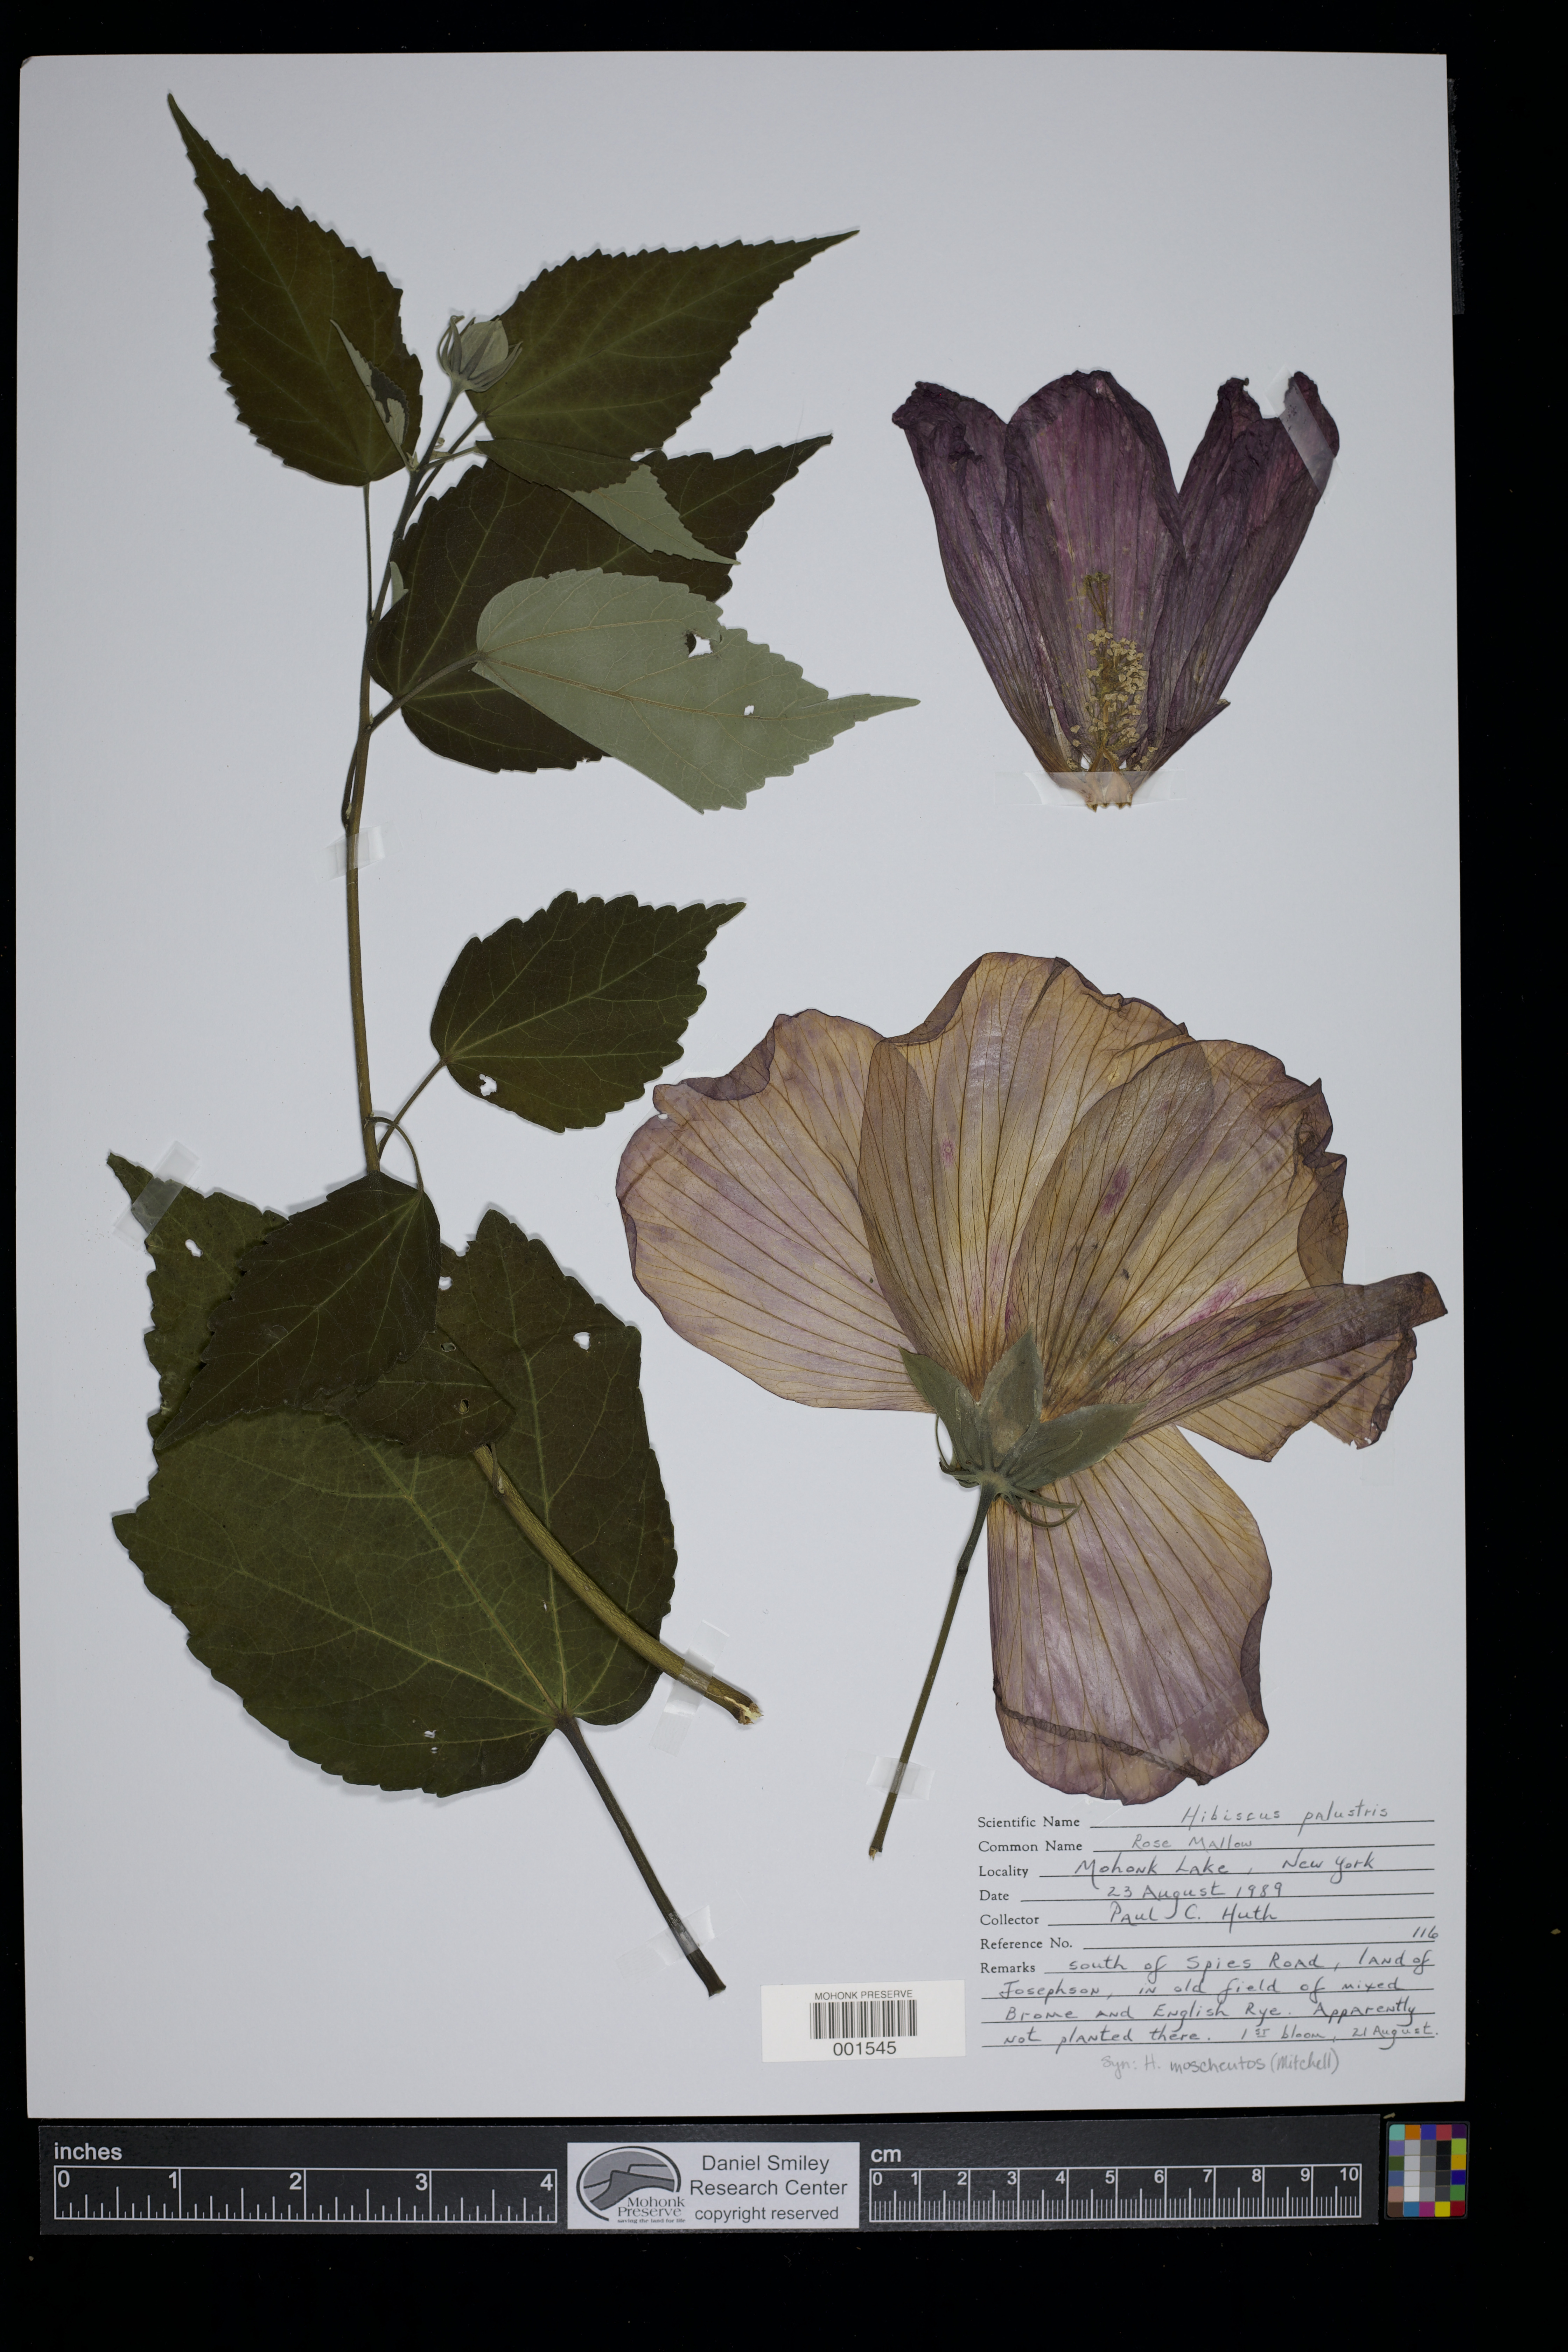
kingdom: Plantae
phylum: Tracheophyta
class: Magnoliopsida
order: Malvales
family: Malvaceae
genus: Hibiscus
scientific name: Hibiscus moscheutos
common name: Common rose-mallow
